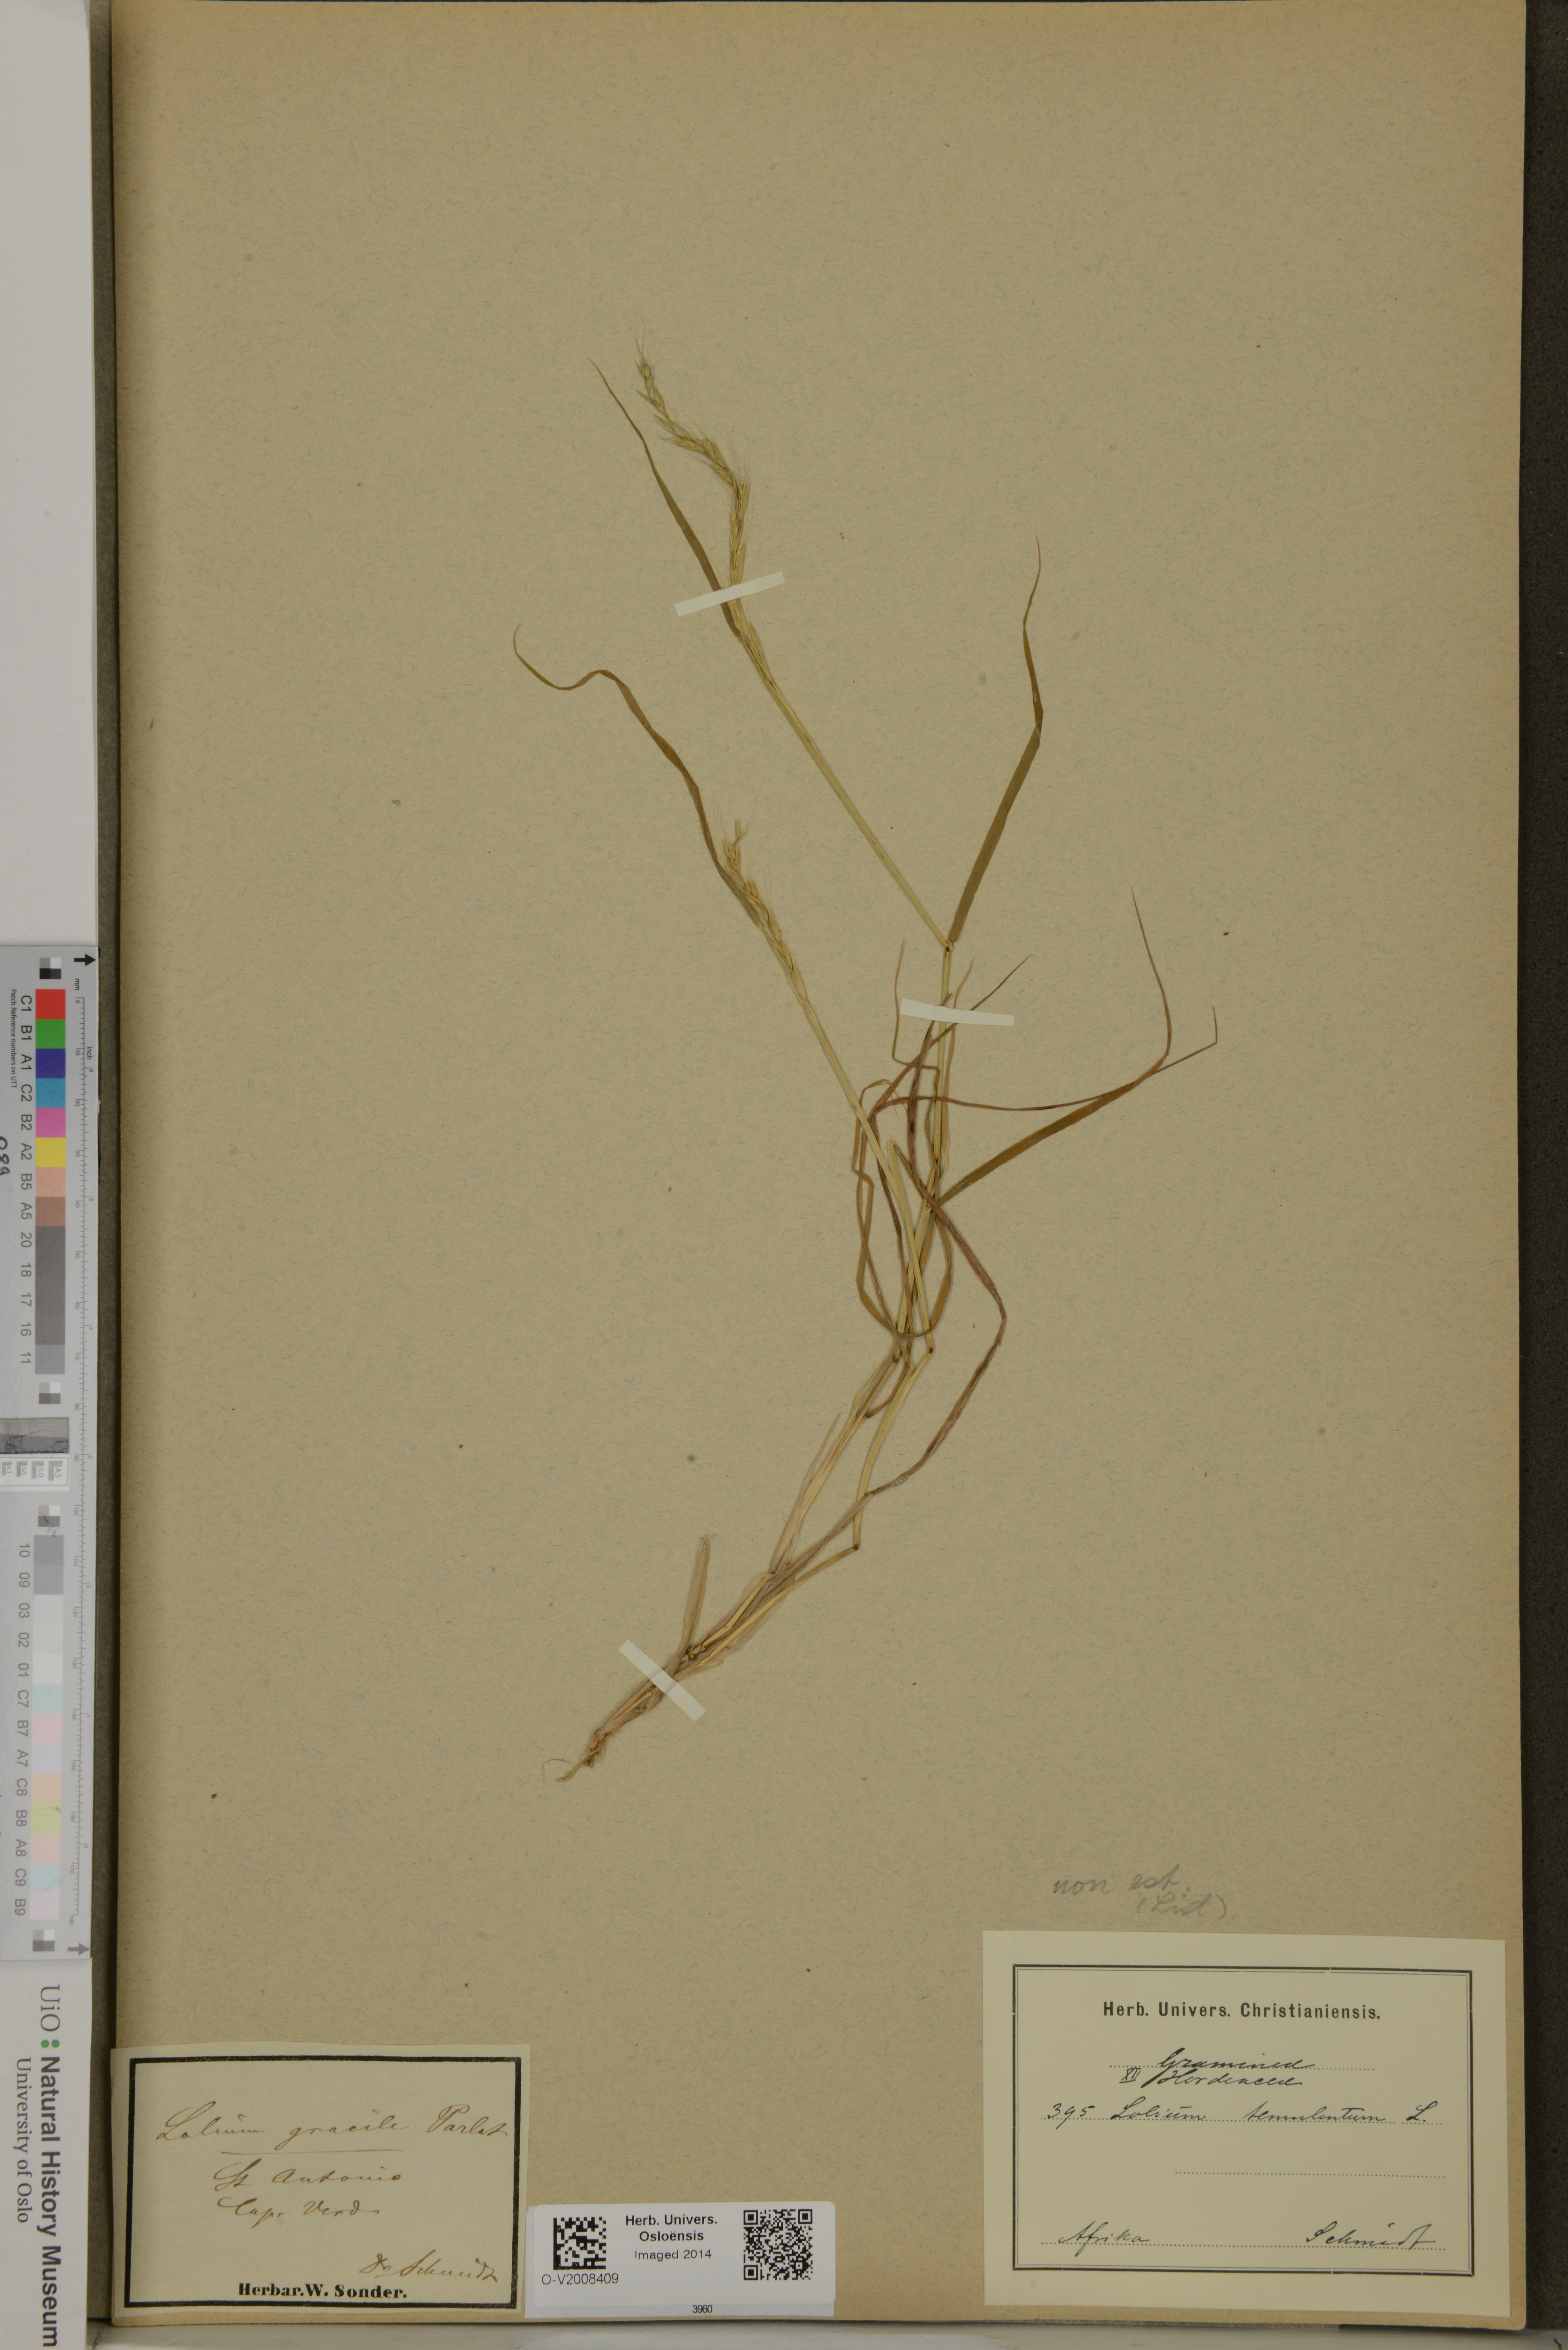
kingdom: Plantae
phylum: Tracheophyta
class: Liliopsida
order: Poales
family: Poaceae
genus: Lolium
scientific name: Lolium temulentum
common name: Darnel
